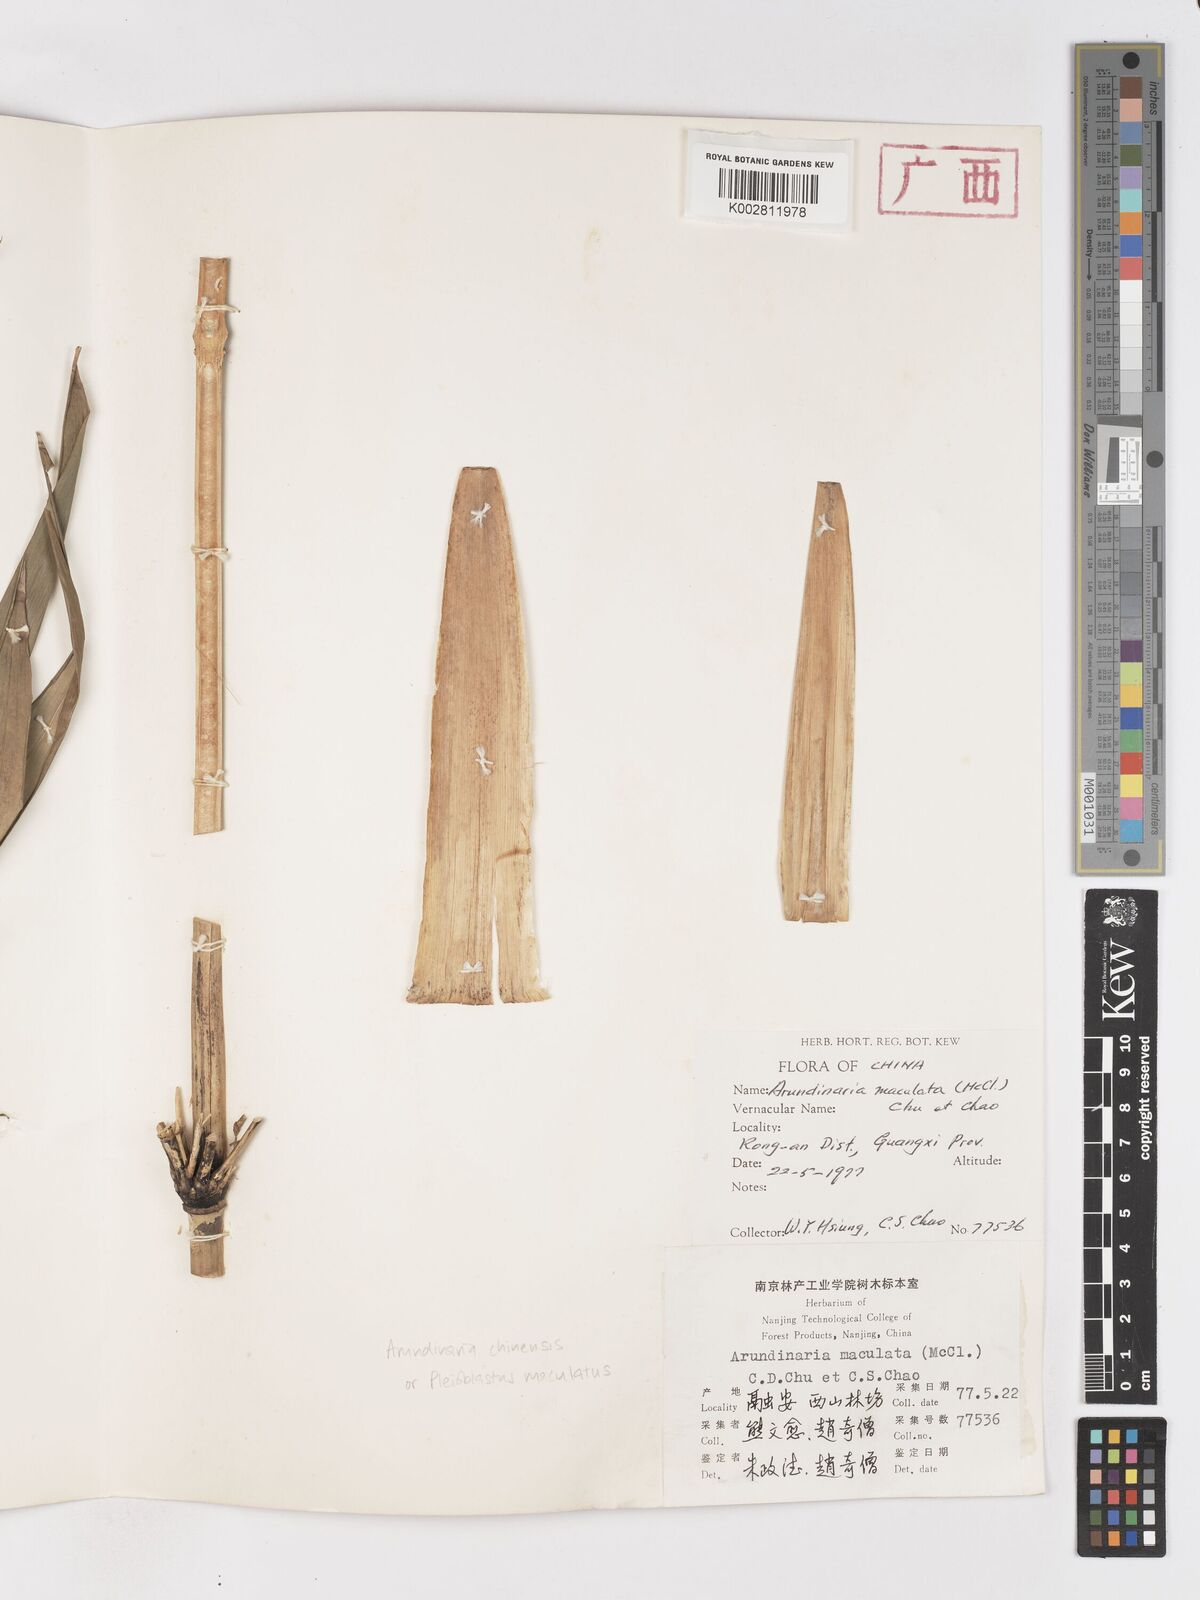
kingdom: Plantae
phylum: Tracheophyta
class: Liliopsida
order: Poales
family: Poaceae
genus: Pleioblastus
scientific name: Pleioblastus maculatus
